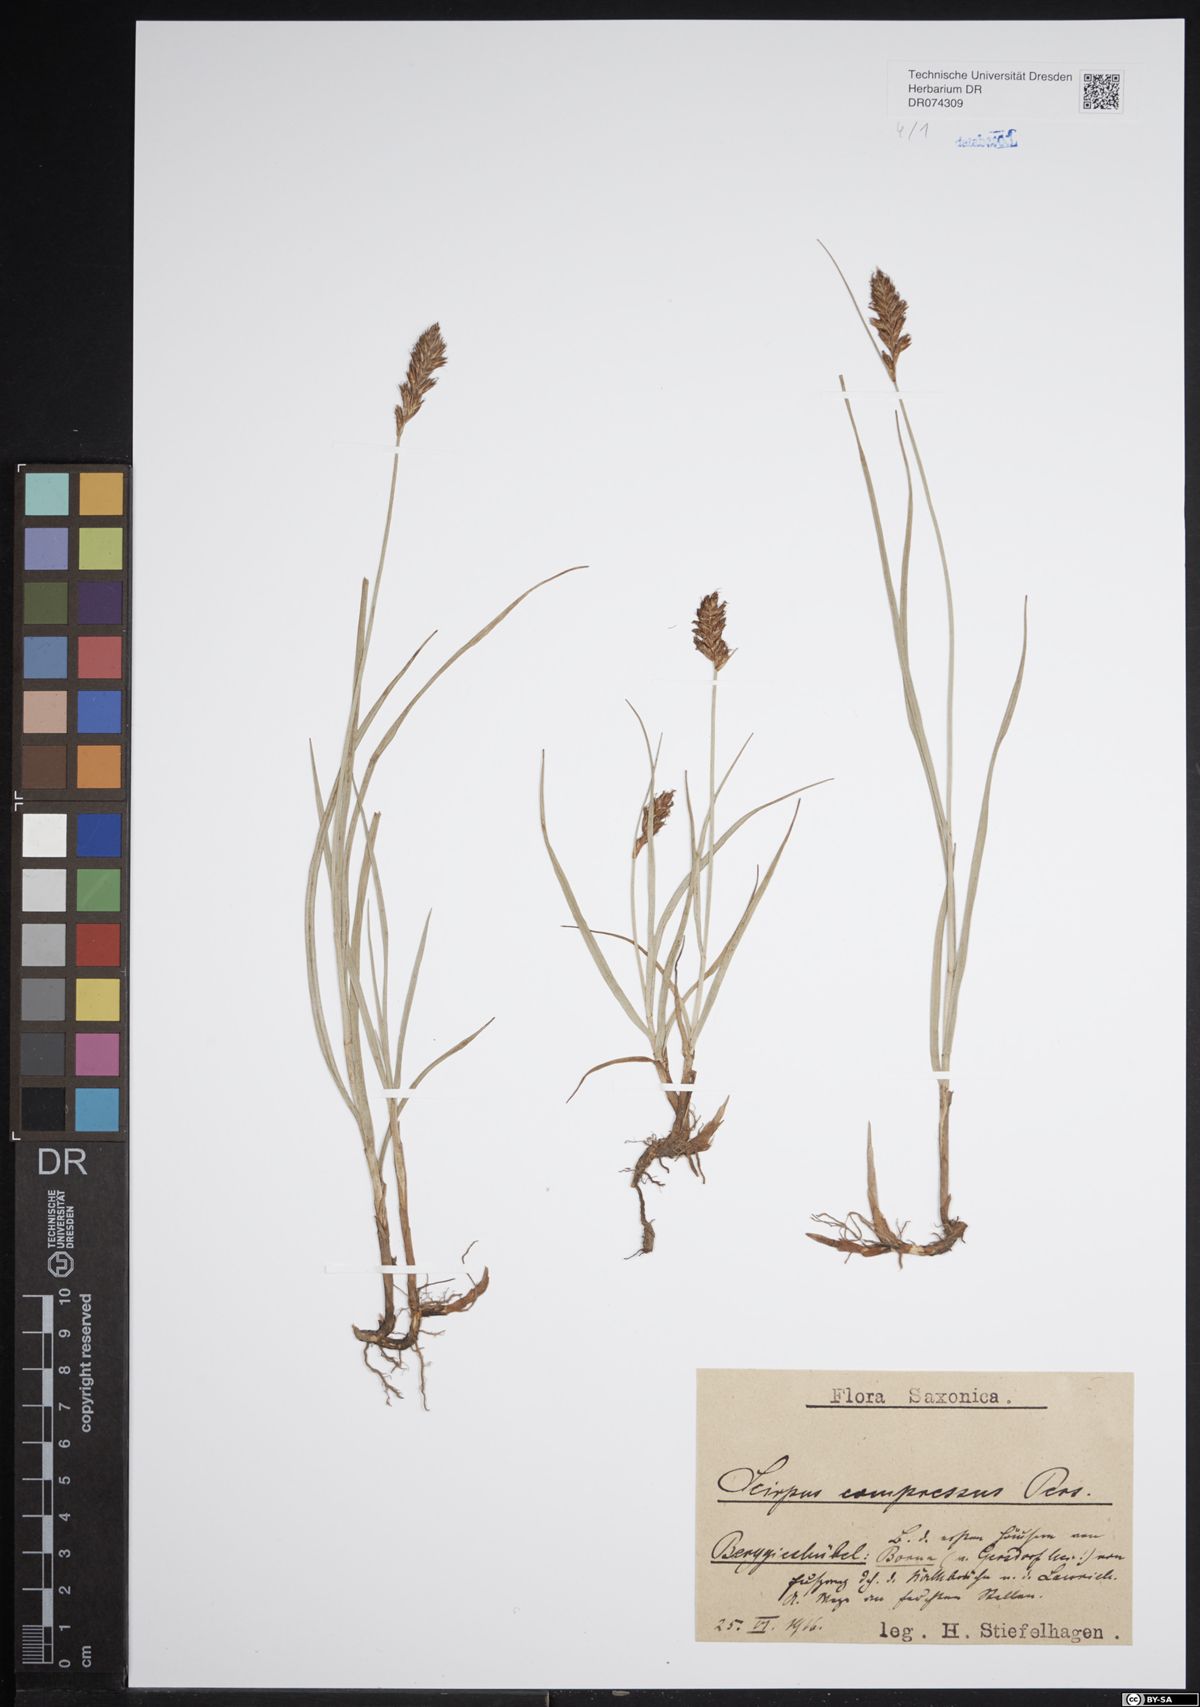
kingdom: Plantae
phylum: Tracheophyta
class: Liliopsida
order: Poales
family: Cyperaceae
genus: Blysmus
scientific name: Blysmus compressus
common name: Flat-sedge
